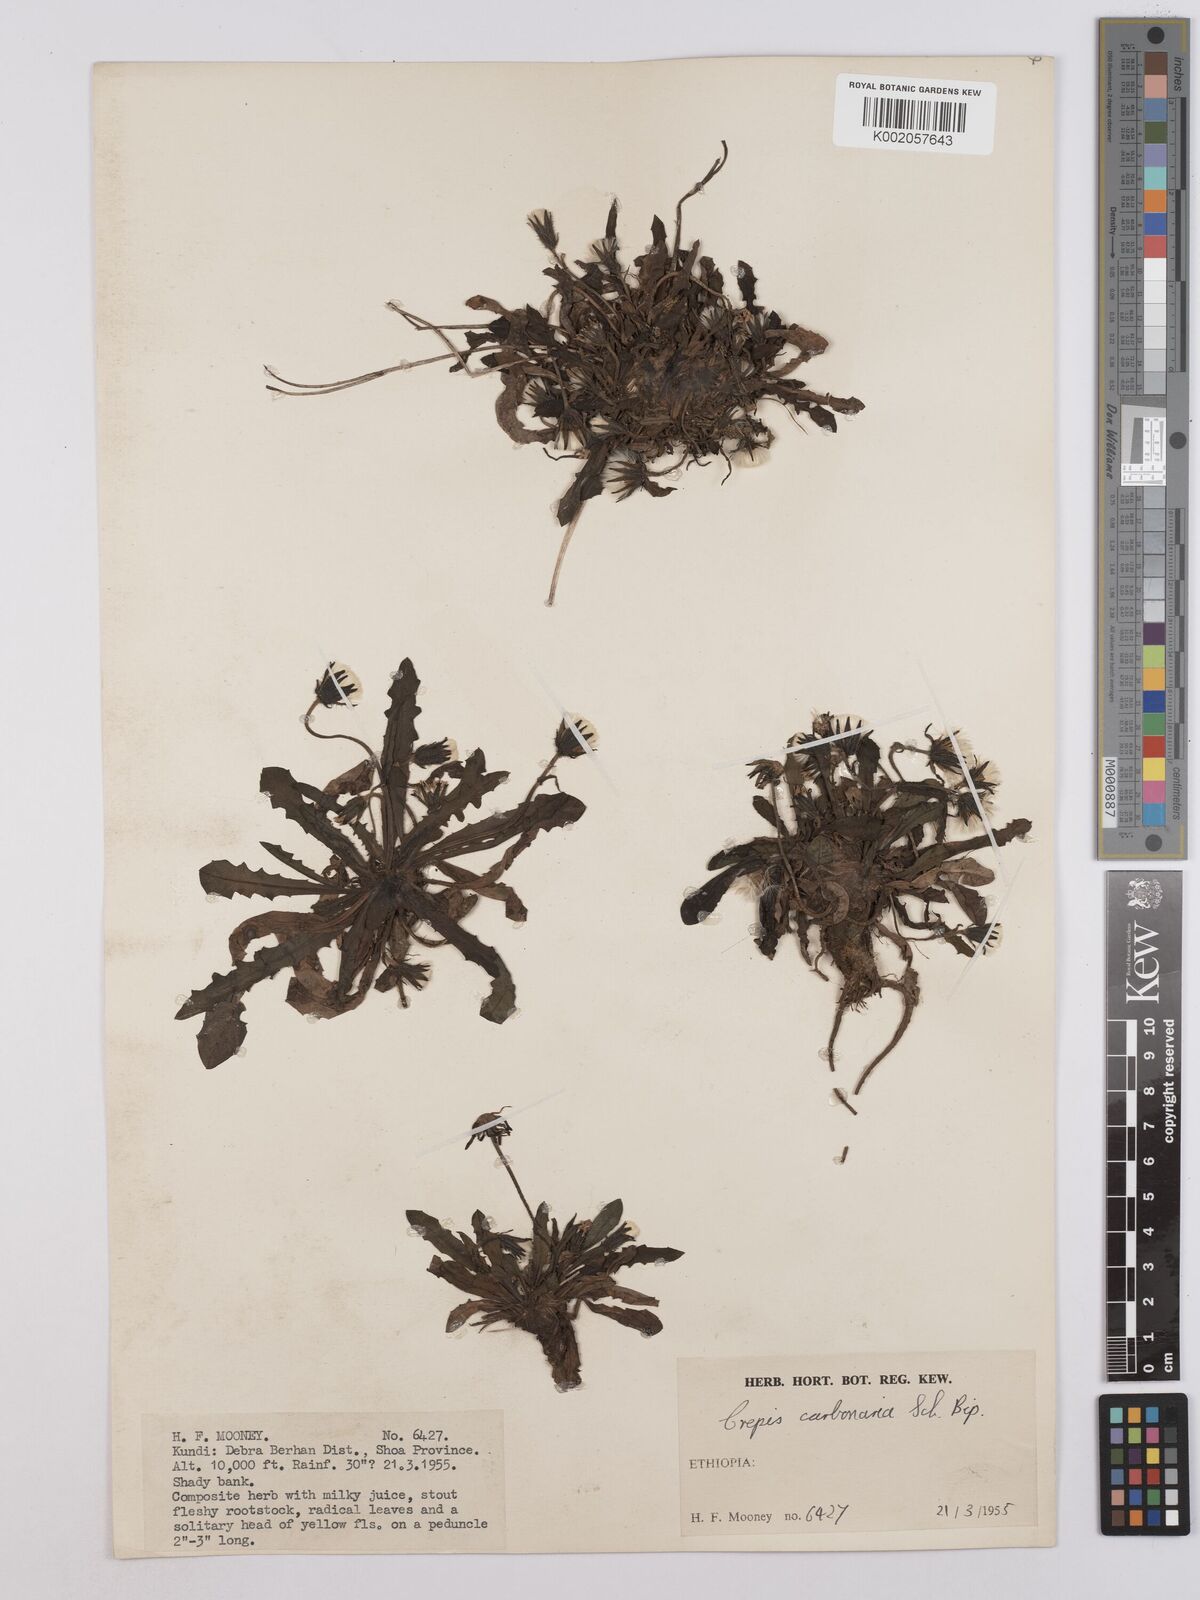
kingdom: Plantae
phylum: Tracheophyta
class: Magnoliopsida
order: Asterales
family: Asteraceae
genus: Crepis
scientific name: Crepis carbonaria
